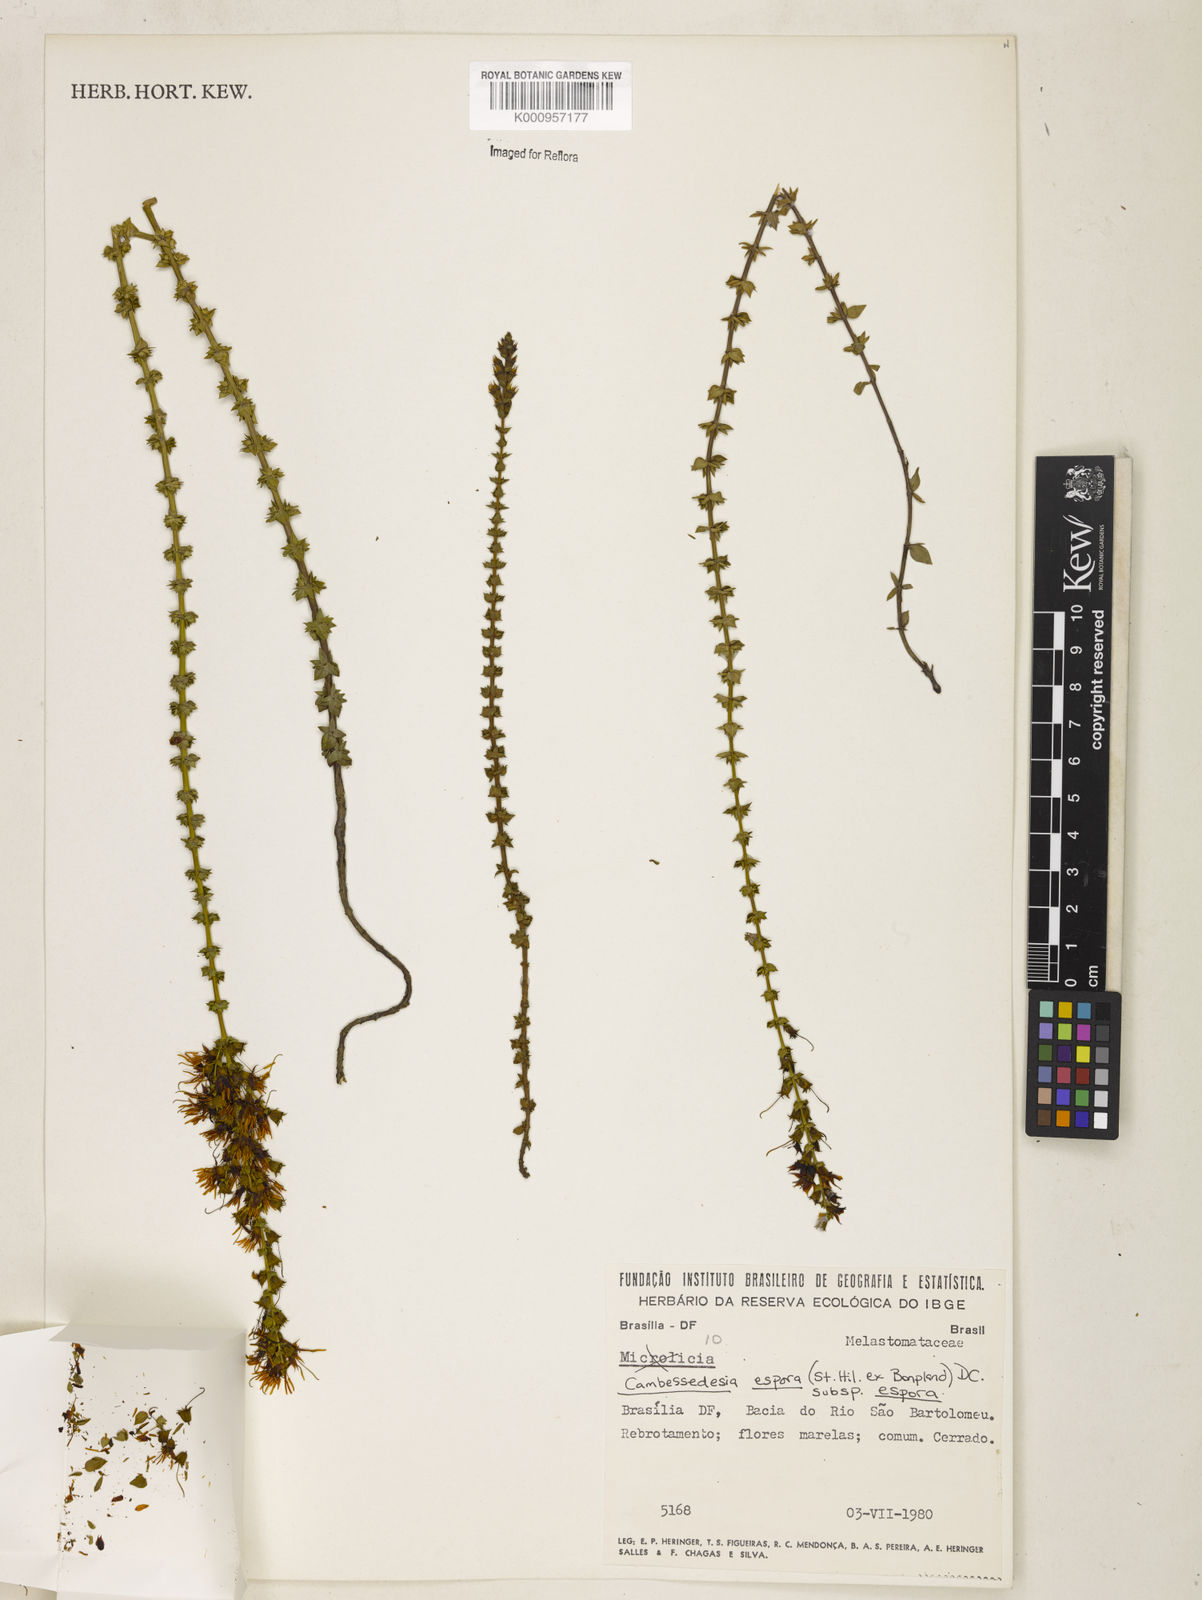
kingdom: Plantae
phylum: Tracheophyta
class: Magnoliopsida
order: Myrtales
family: Melastomataceae
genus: Cambessedesia
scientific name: Cambessedesia espora
